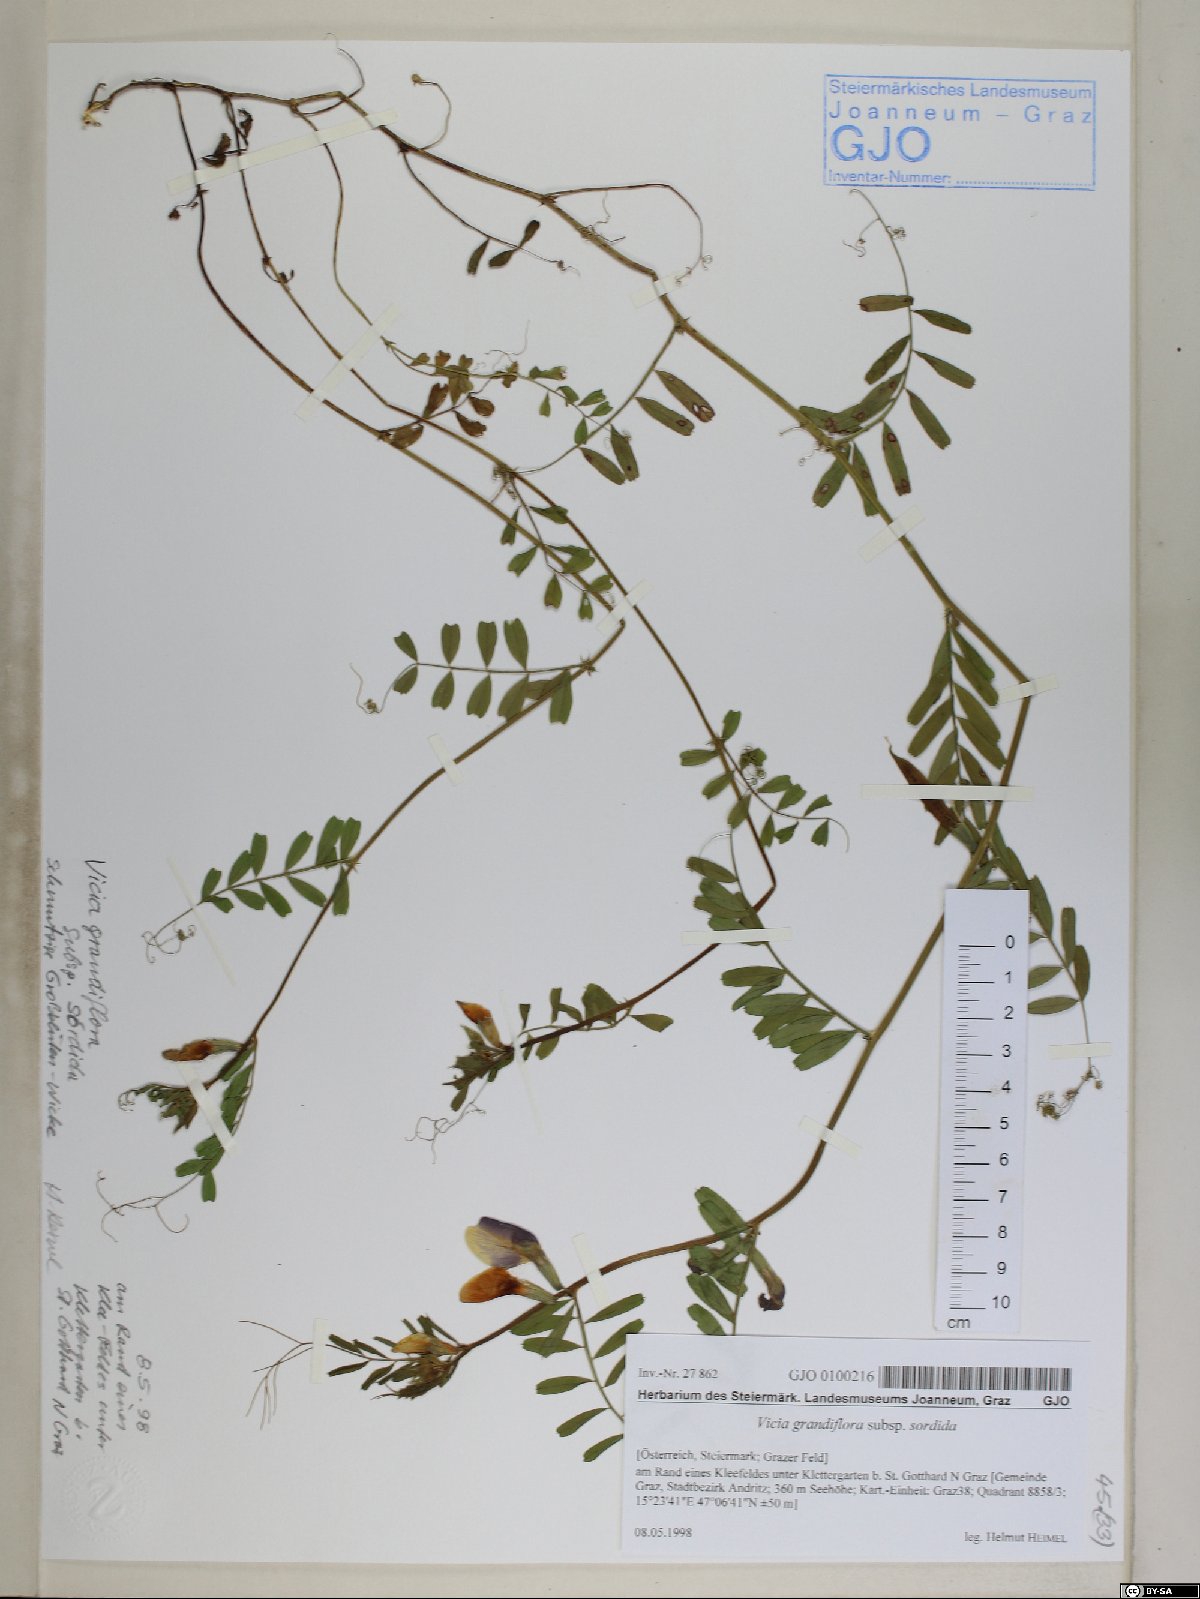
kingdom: Plantae
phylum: Tracheophyta
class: Magnoliopsida
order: Fabales
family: Fabaceae
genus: Vicia
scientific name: Vicia grandiflora
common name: Large yellow vetch
